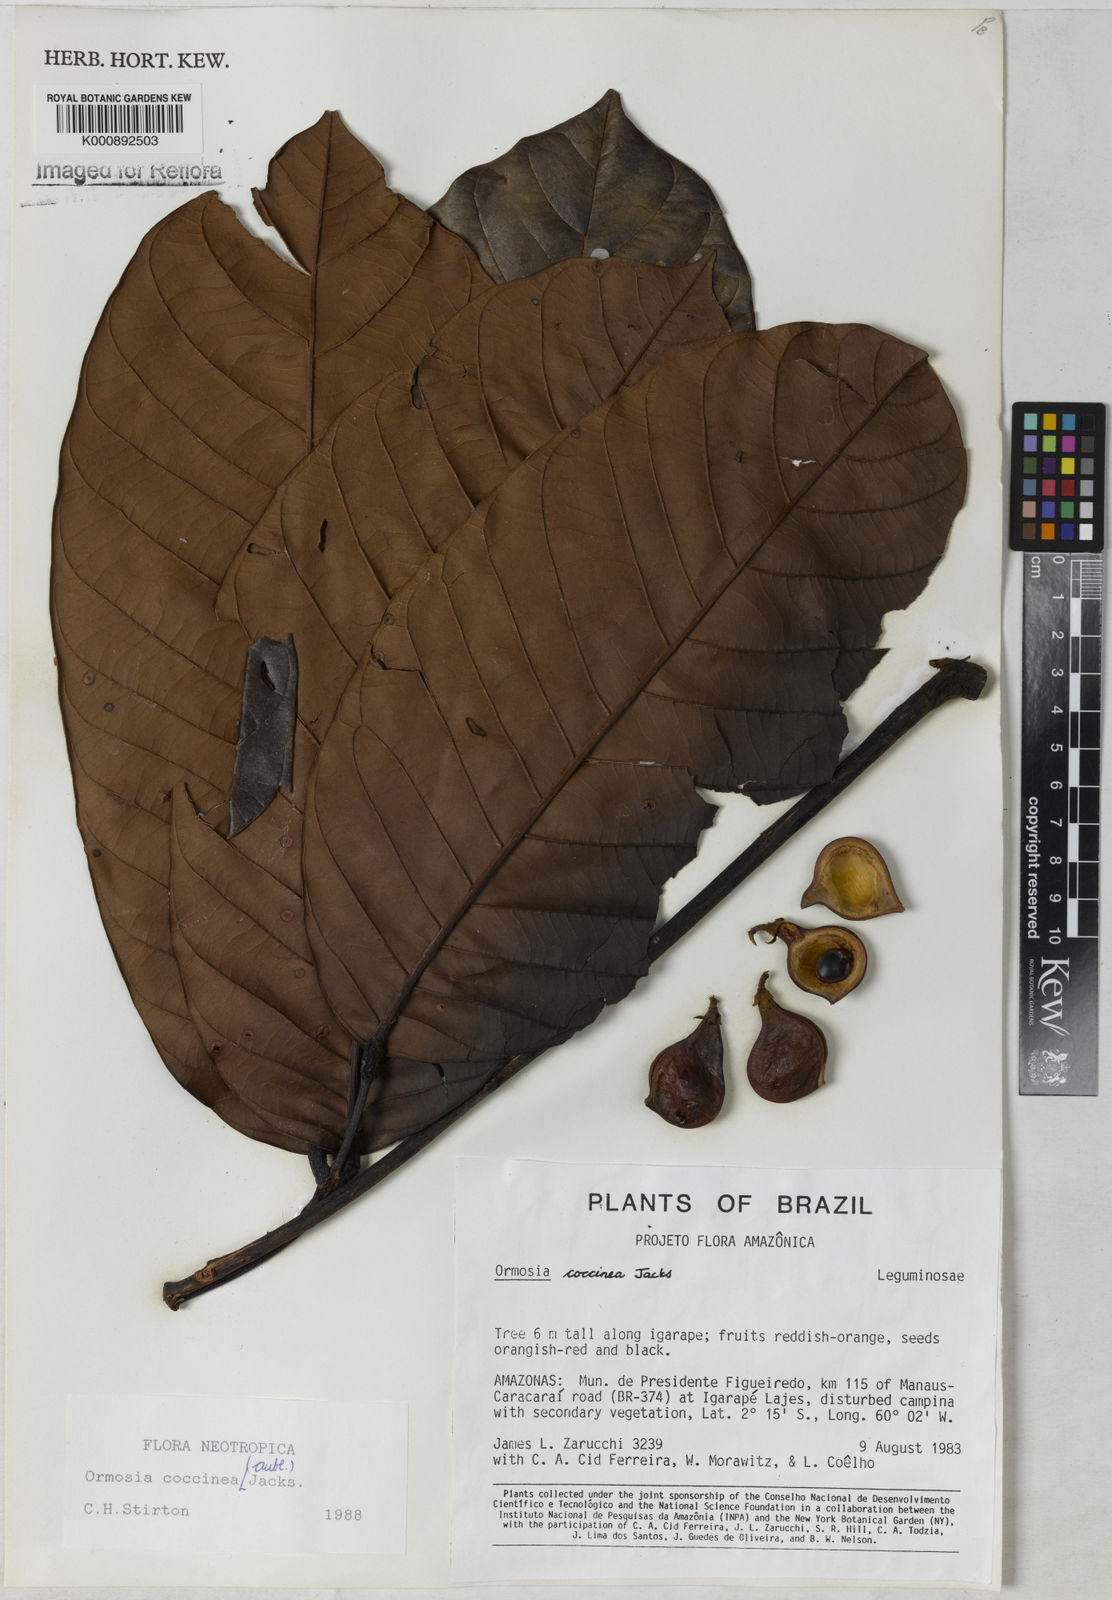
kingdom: Plantae
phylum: Tracheophyta
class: Magnoliopsida
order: Fabales
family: Fabaceae
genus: Ormosia
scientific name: Ormosia coccinea
